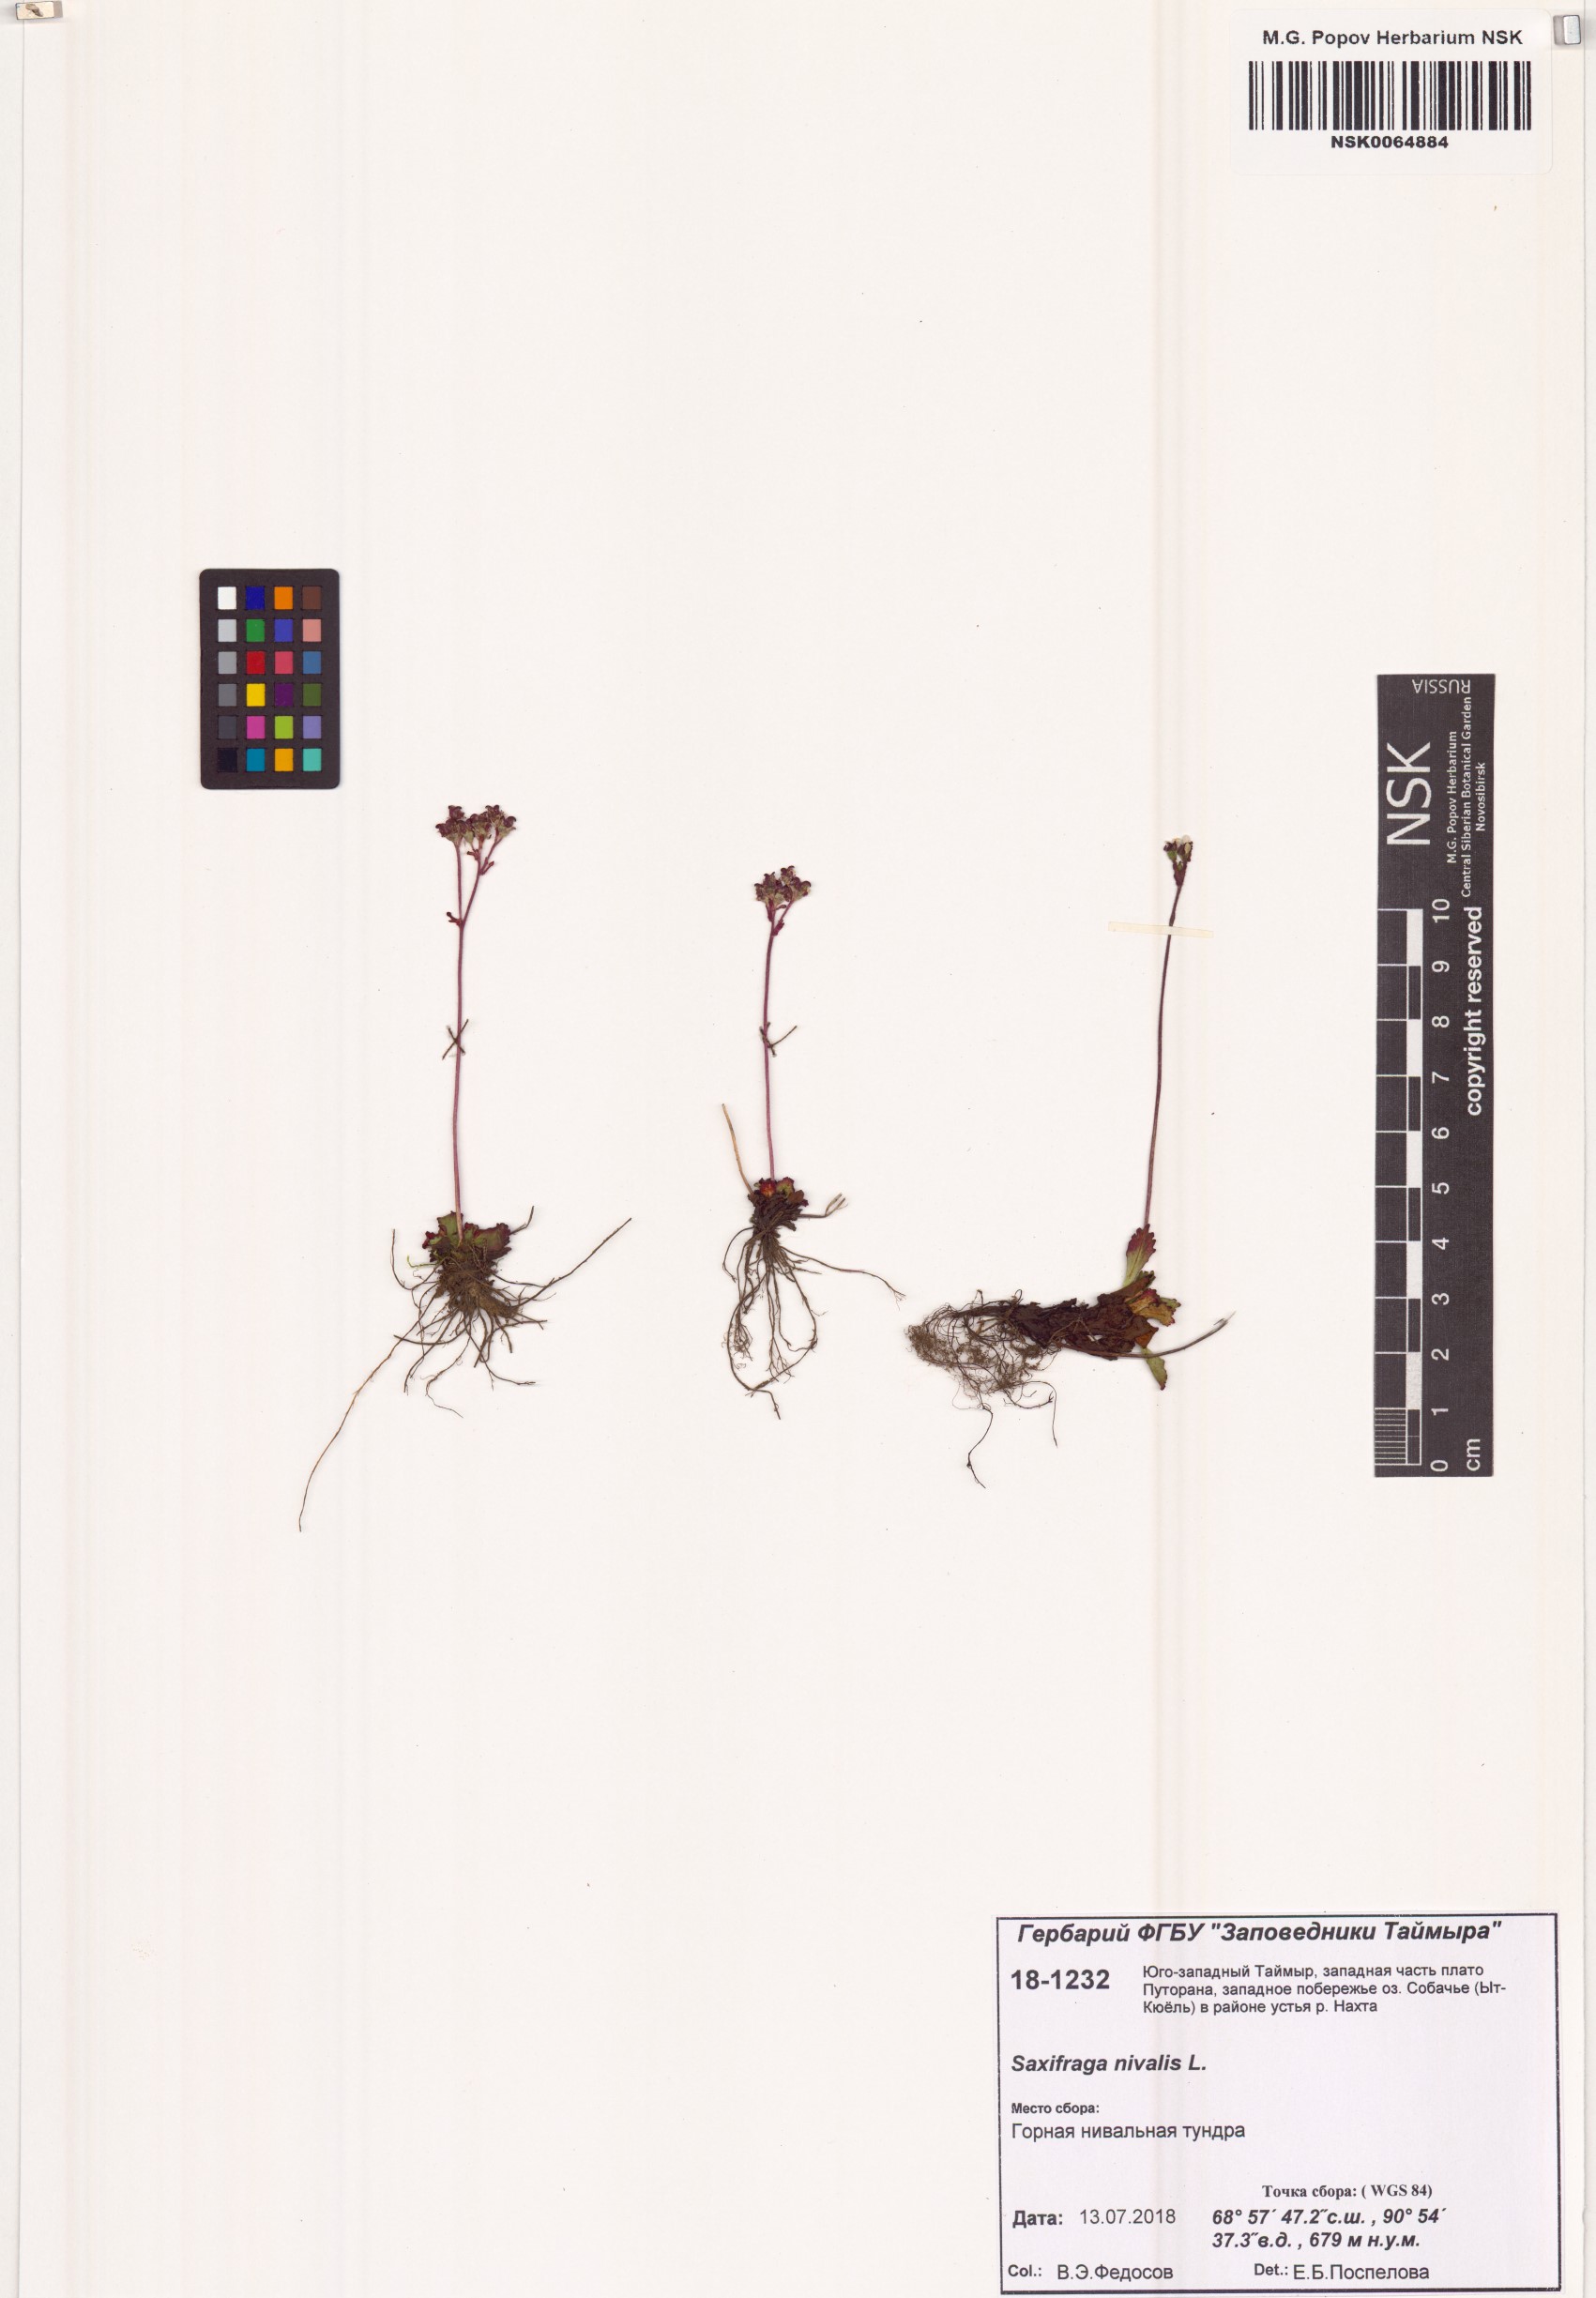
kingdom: Plantae
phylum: Tracheophyta
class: Magnoliopsida
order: Saxifragales
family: Saxifragaceae
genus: Micranthes
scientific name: Micranthes nivalis
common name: Alpine saxifrage
